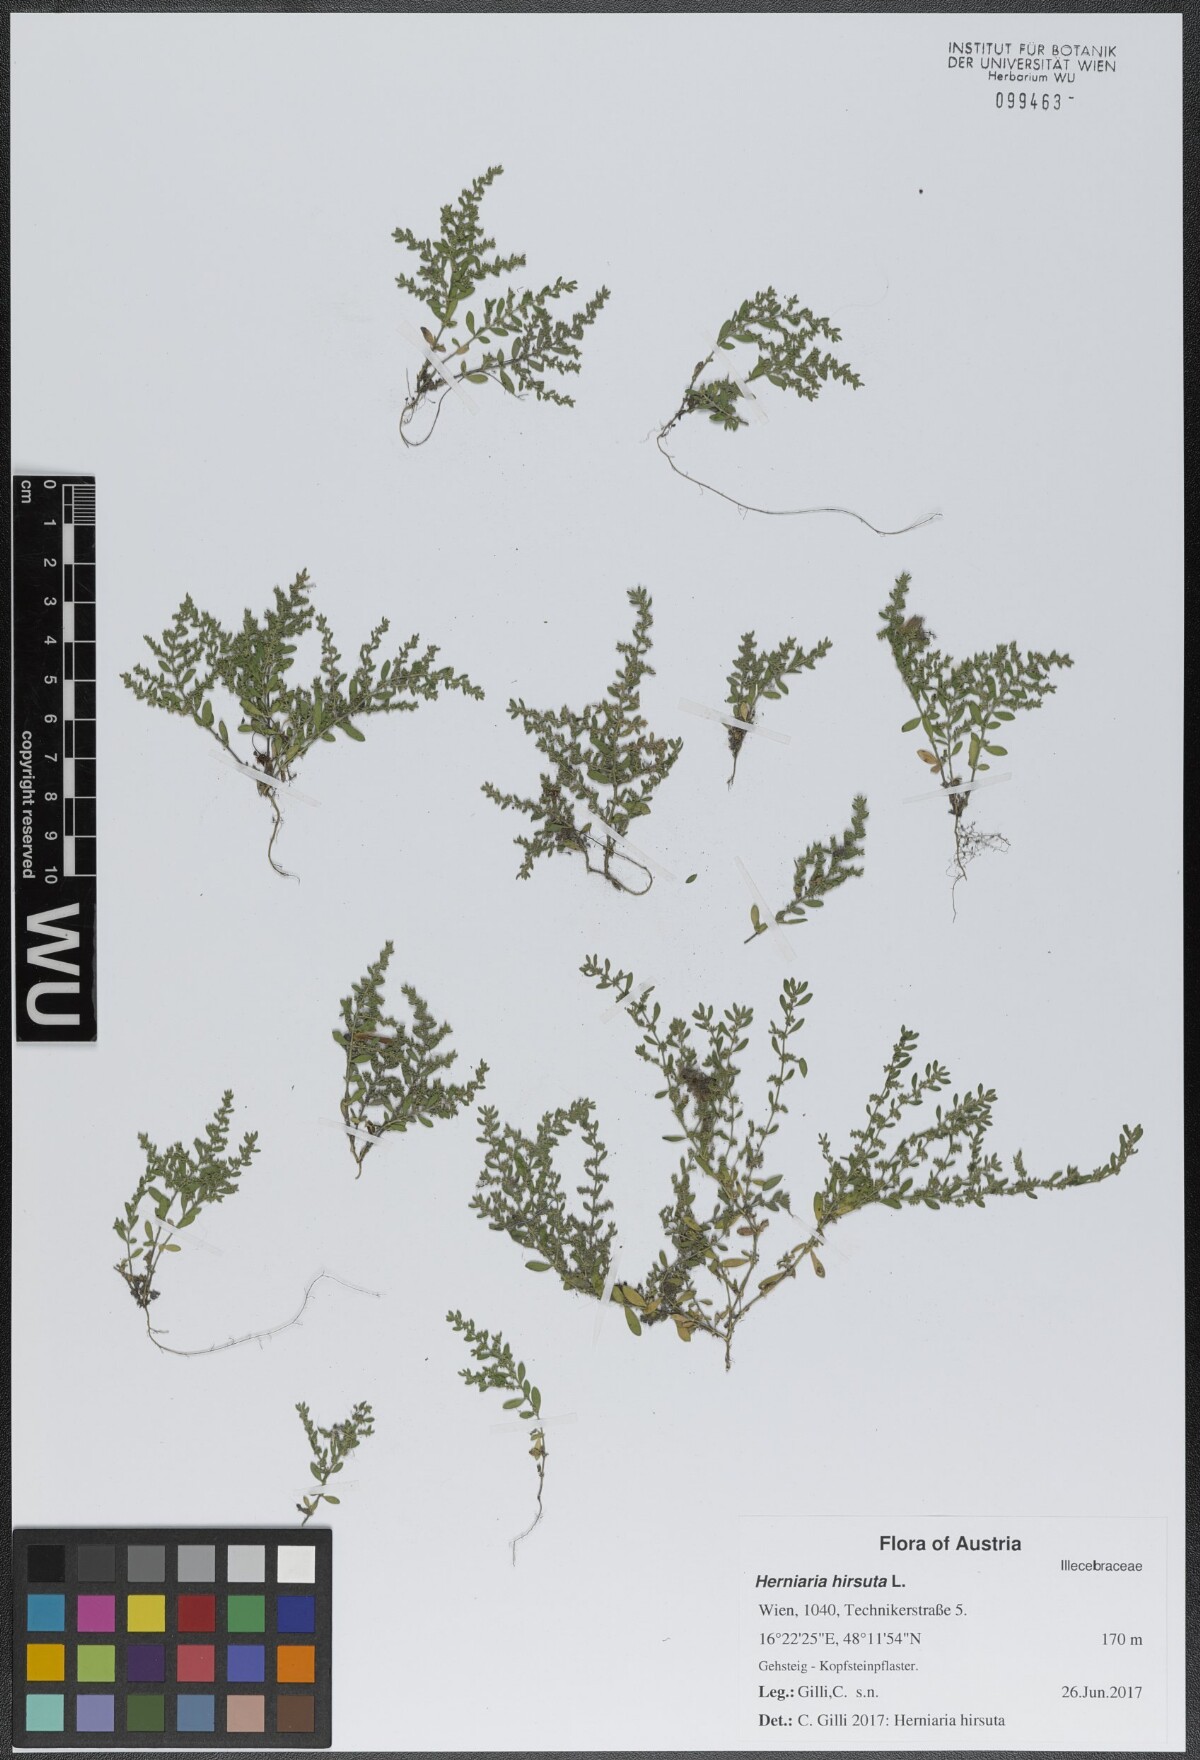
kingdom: Plantae
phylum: Tracheophyta
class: Magnoliopsida
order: Caryophyllales
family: Caryophyllaceae
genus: Herniaria
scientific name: Herniaria hirsuta
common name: Hairy rupturewort
